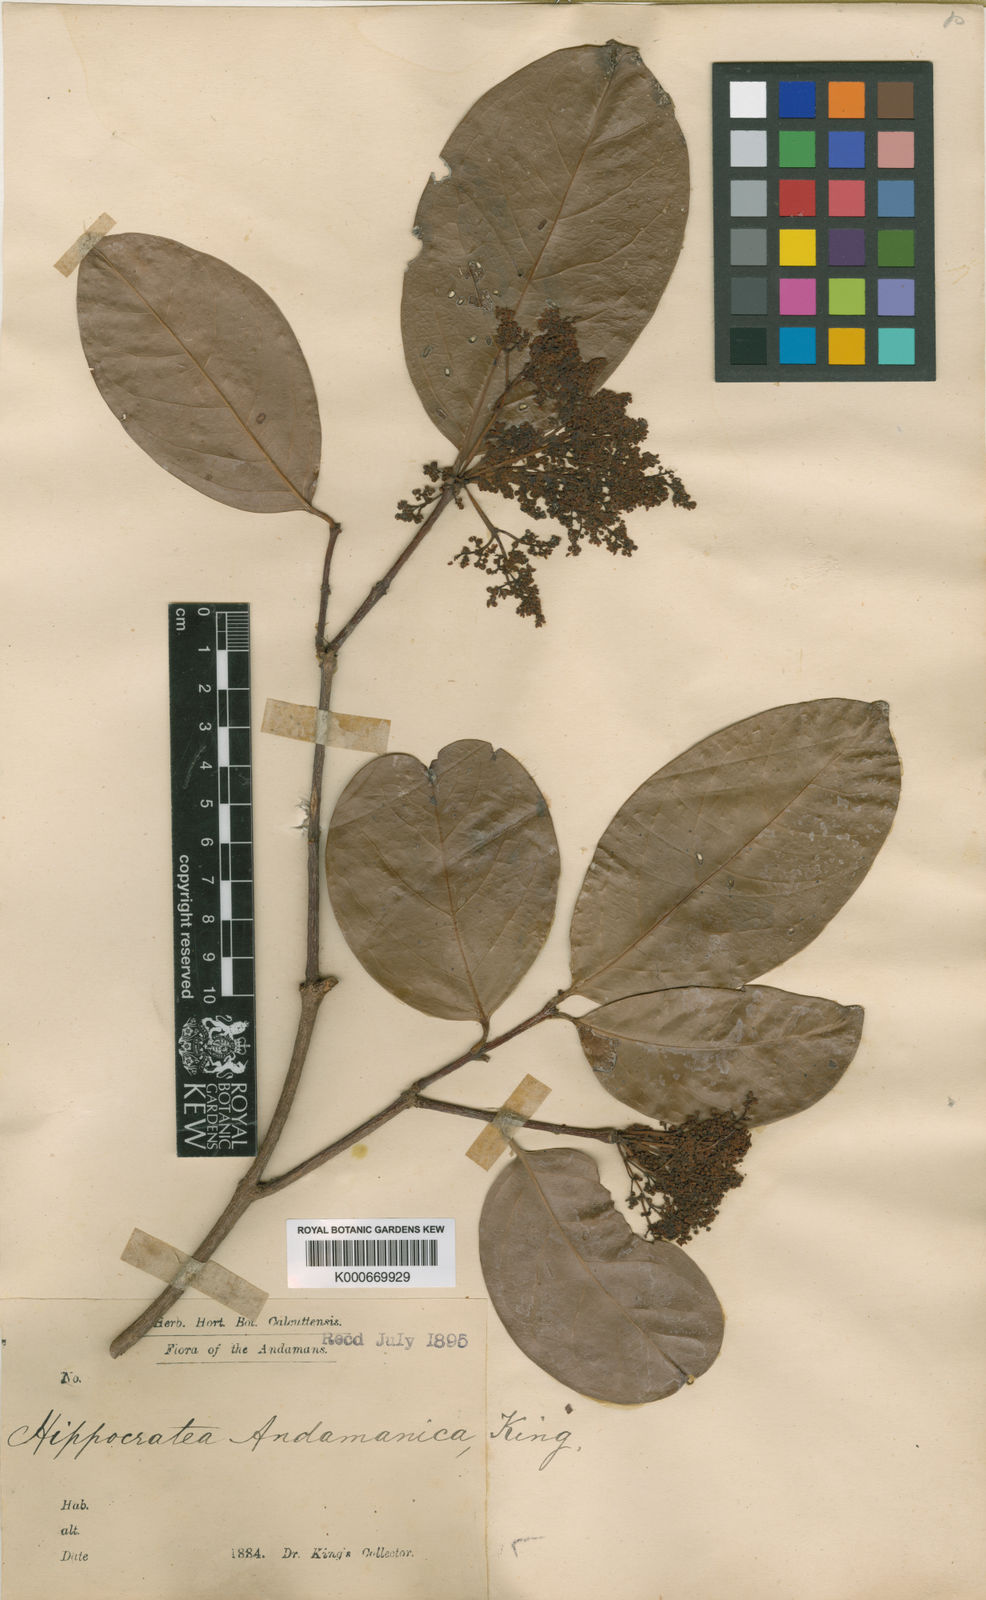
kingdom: Plantae
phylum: Tracheophyta
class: Magnoliopsida
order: Celastrales
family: Celastraceae
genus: Loeseneriella
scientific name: Loeseneriella andamanica
